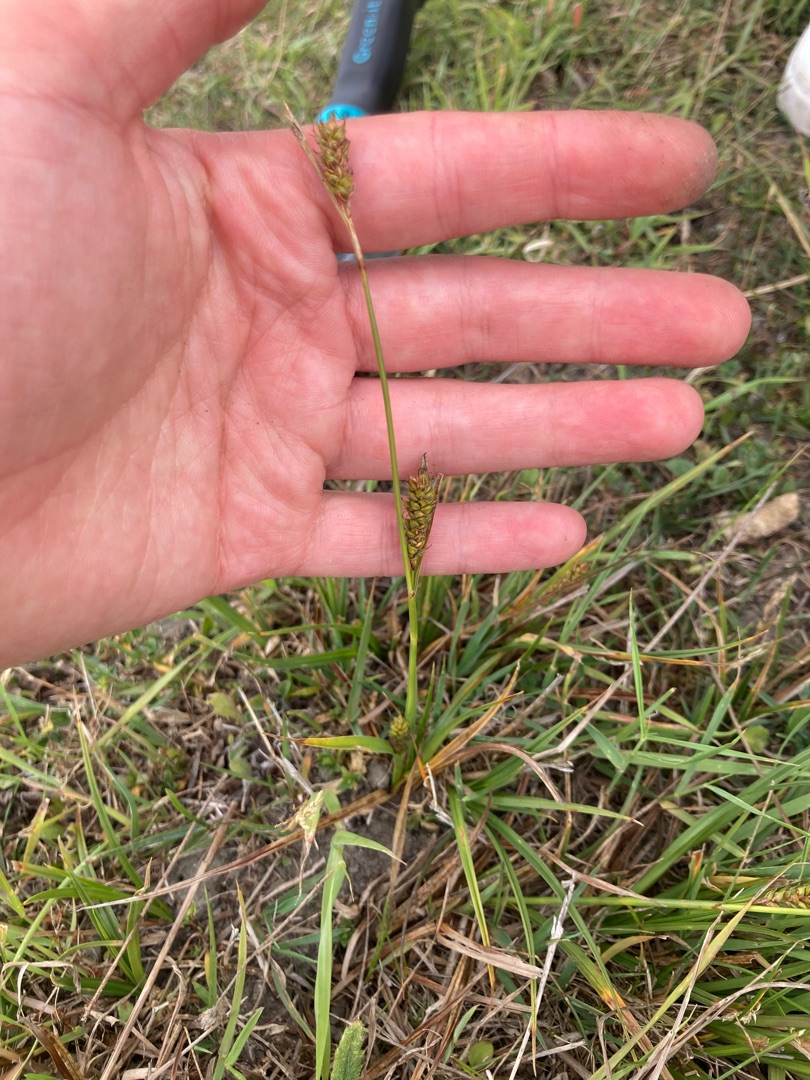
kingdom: Plantae
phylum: Tracheophyta
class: Liliopsida
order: Poales
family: Cyperaceae
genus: Carex
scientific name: Carex distans
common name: Fjernakset star
